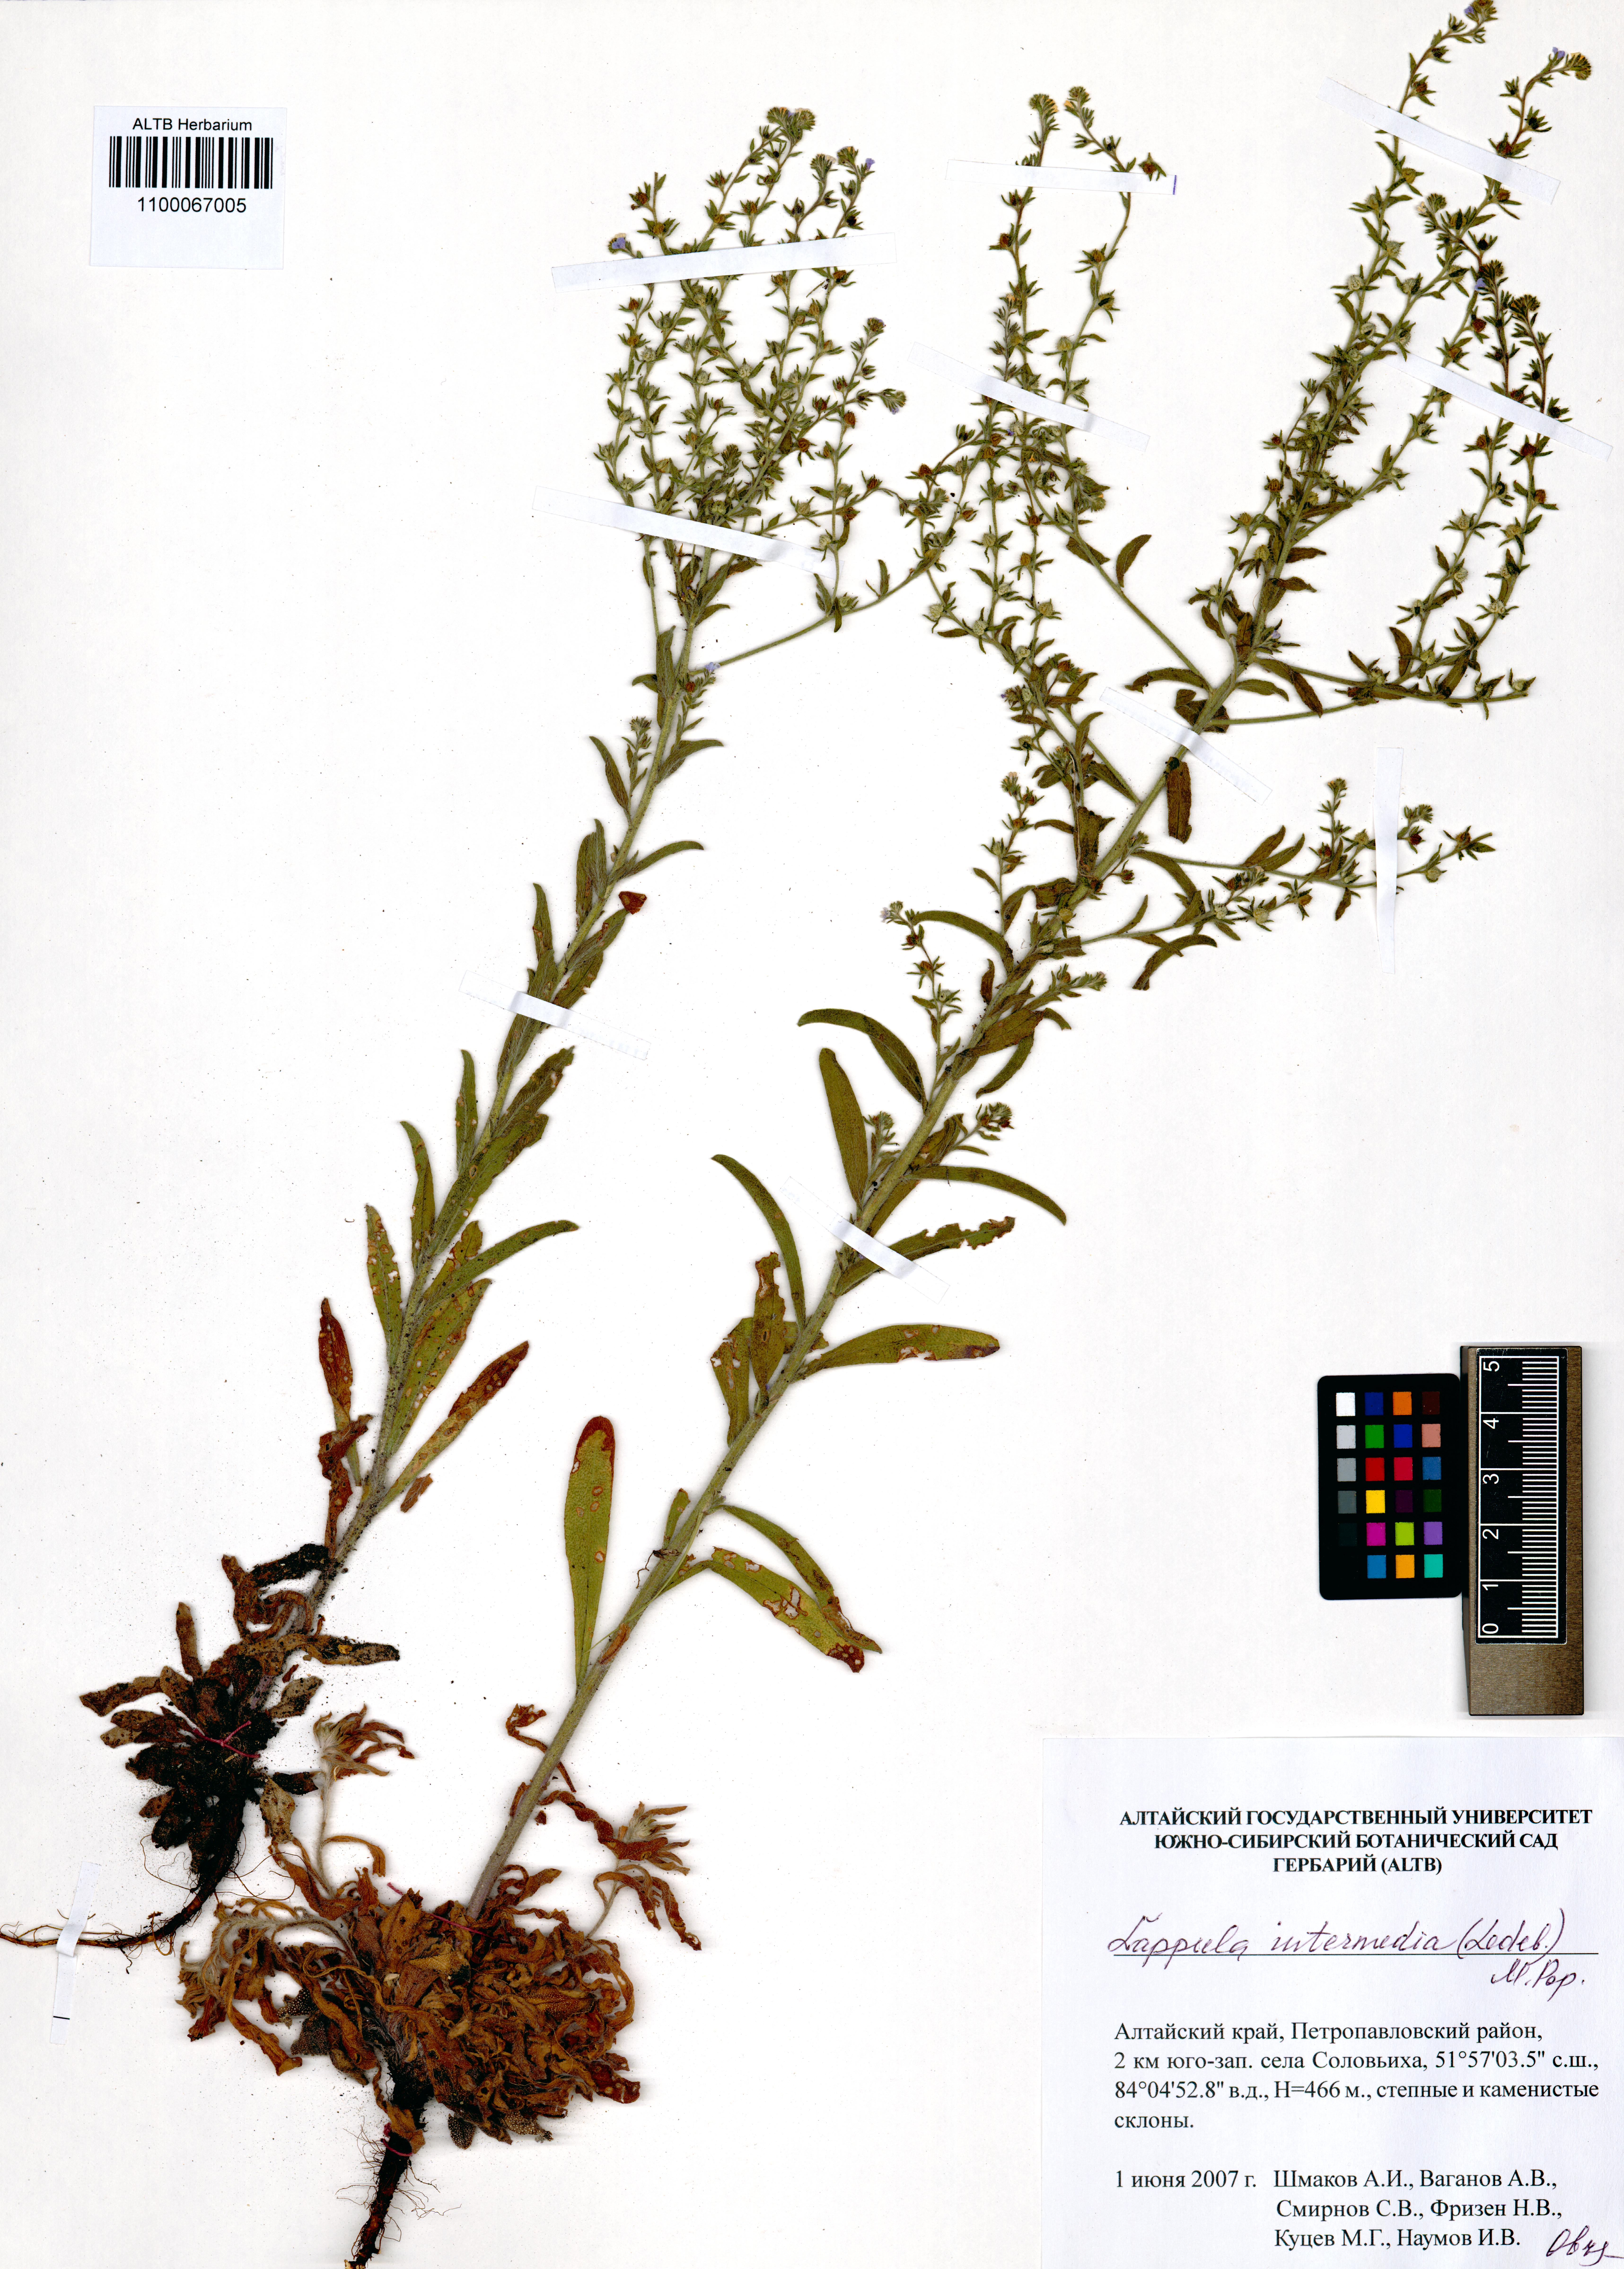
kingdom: Plantae
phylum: Tracheophyta
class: Magnoliopsida
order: Boraginales
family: Boraginaceae
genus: Lappula
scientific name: Lappula intermedia
